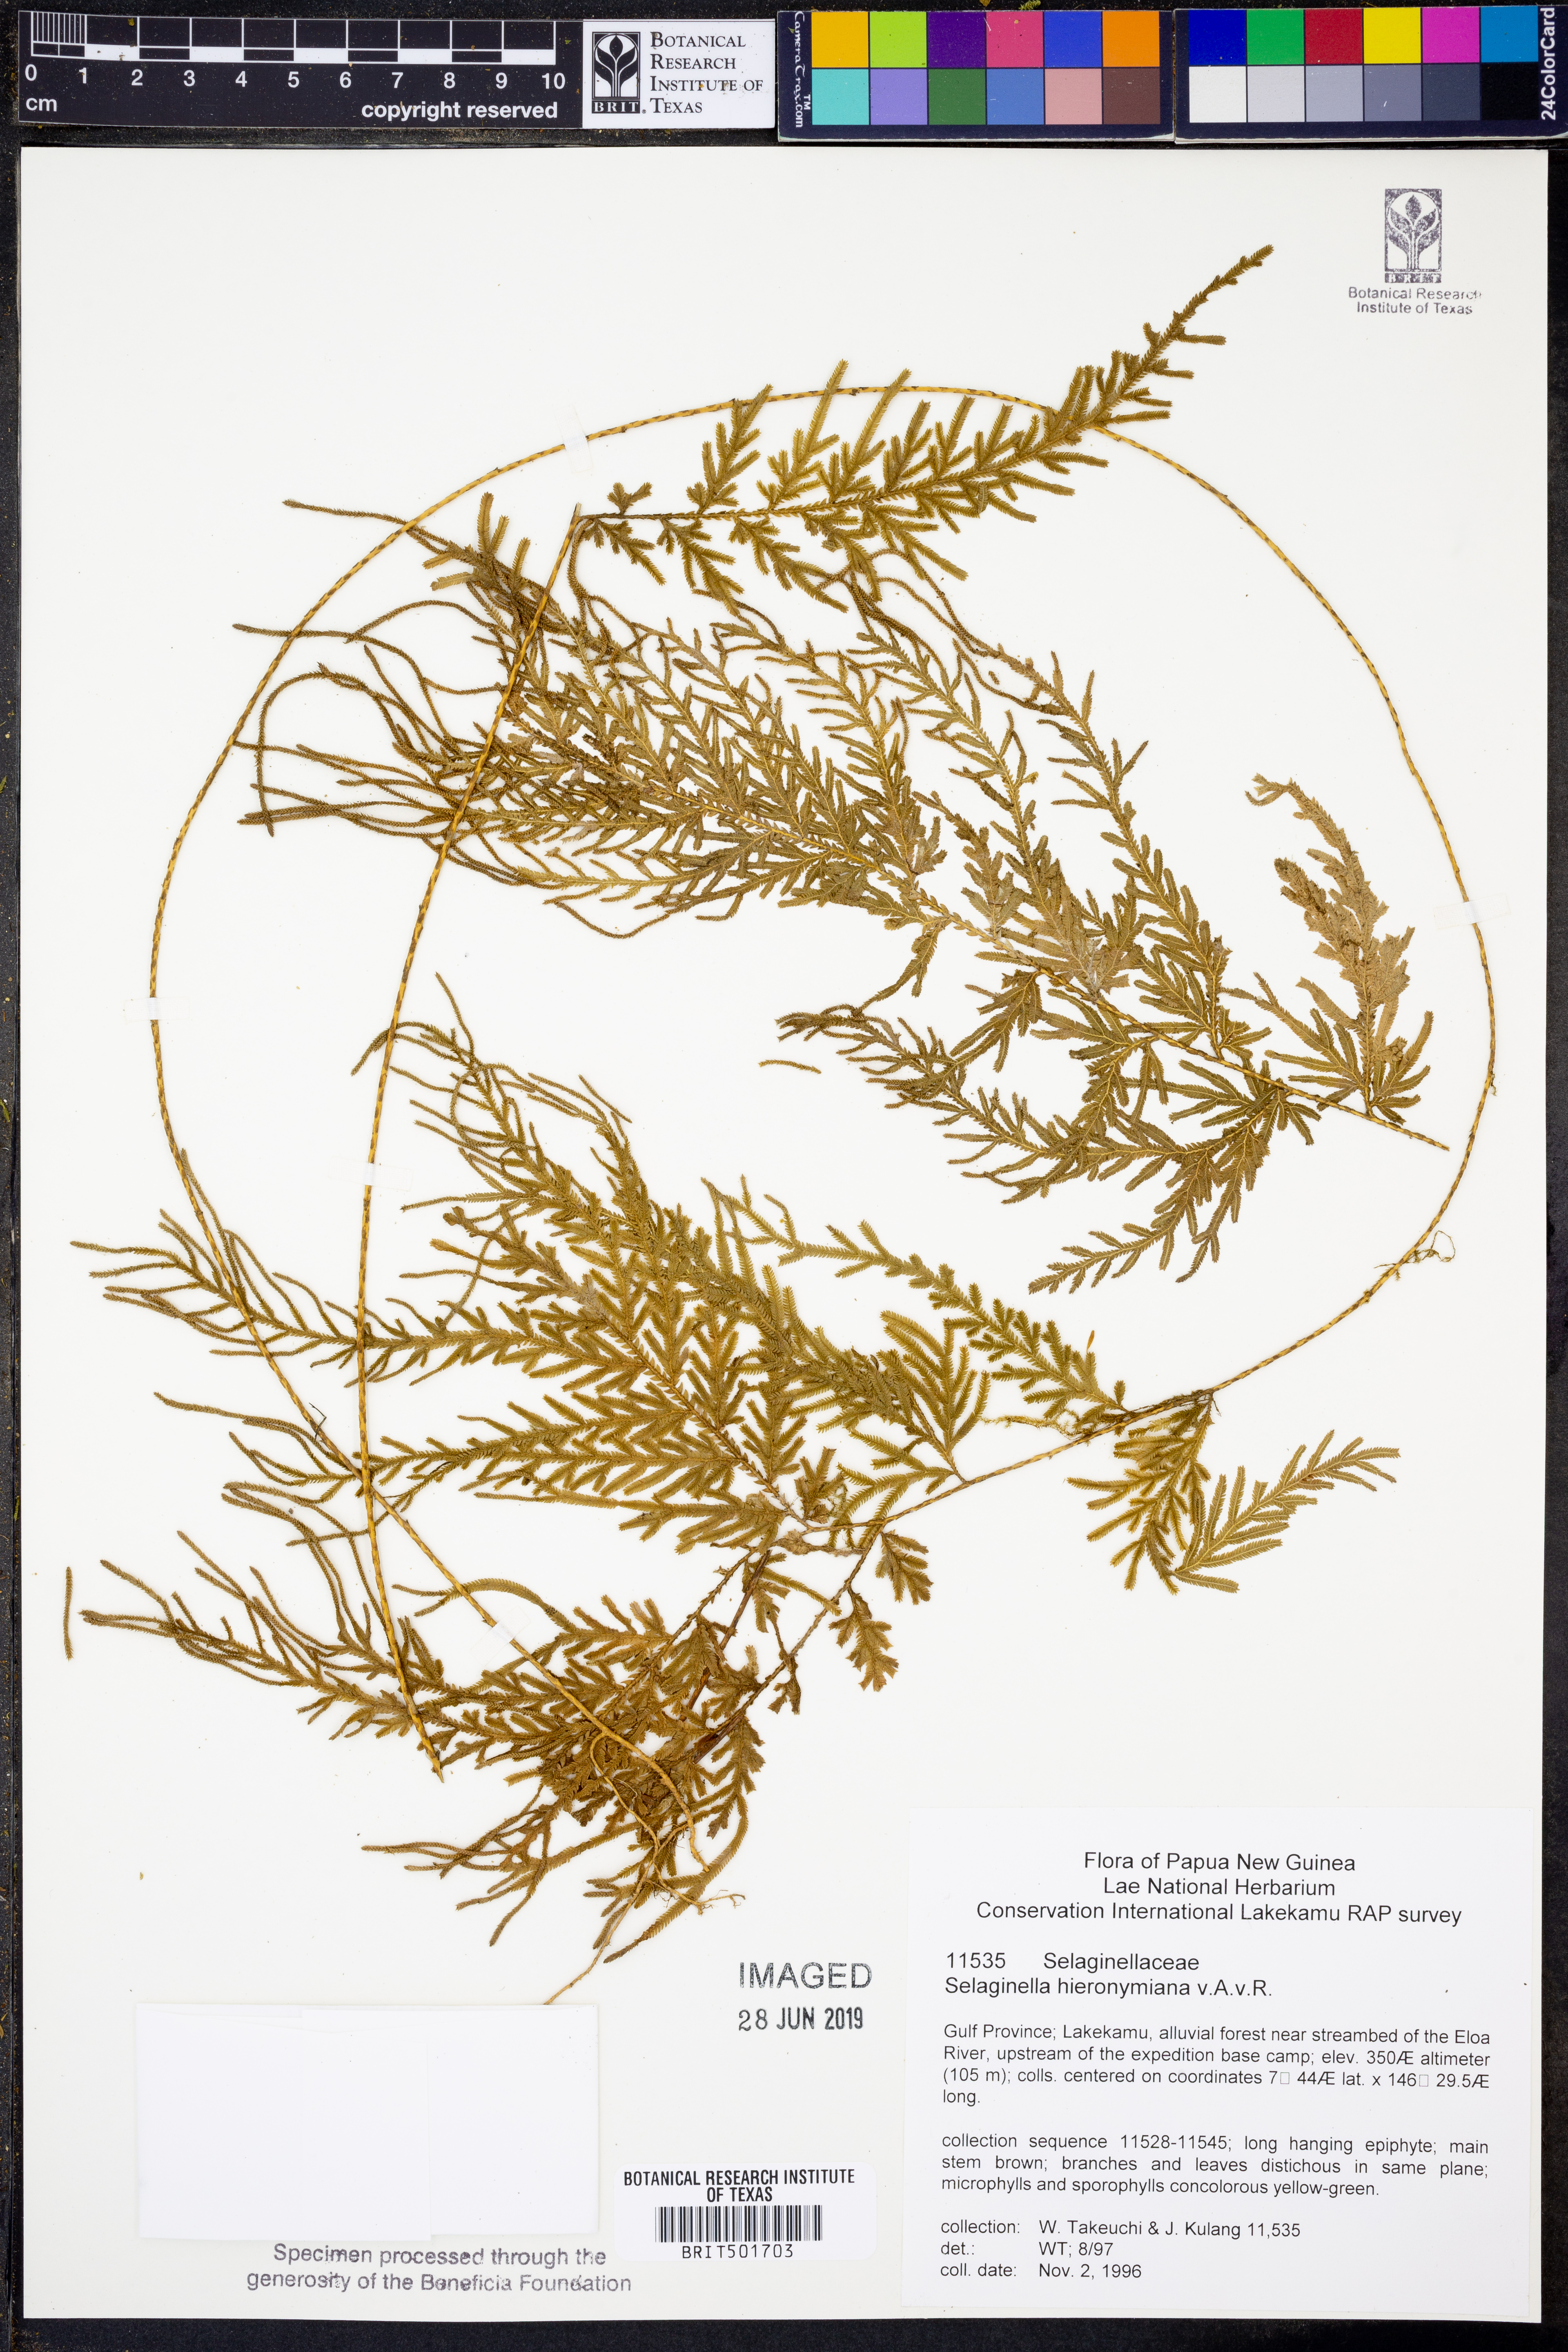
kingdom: Plantae
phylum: Tracheophyta
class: Lycopodiopsida
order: Selaginellales
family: Selaginellaceae
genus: Selaginella
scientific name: Selaginella hieronymiana
